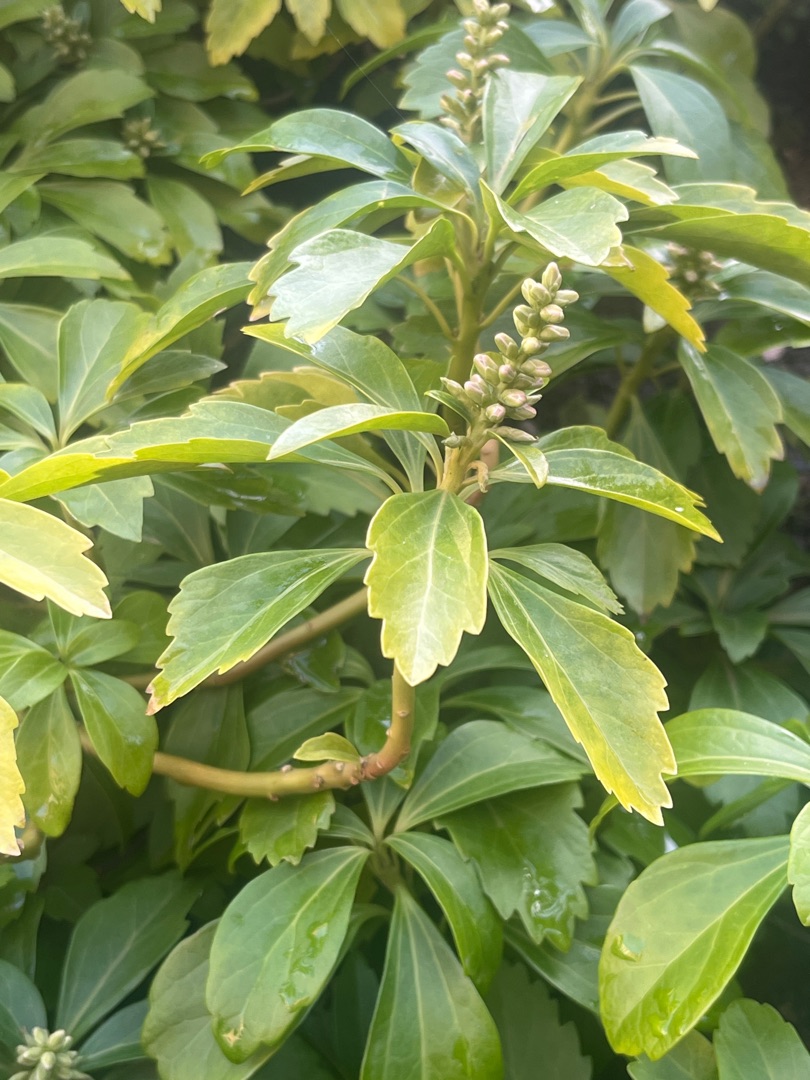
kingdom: Plantae
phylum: Tracheophyta
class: Magnoliopsida
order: Buxales
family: Buxaceae
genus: Pachysandra
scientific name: Pachysandra terminalis
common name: Vinterglans
